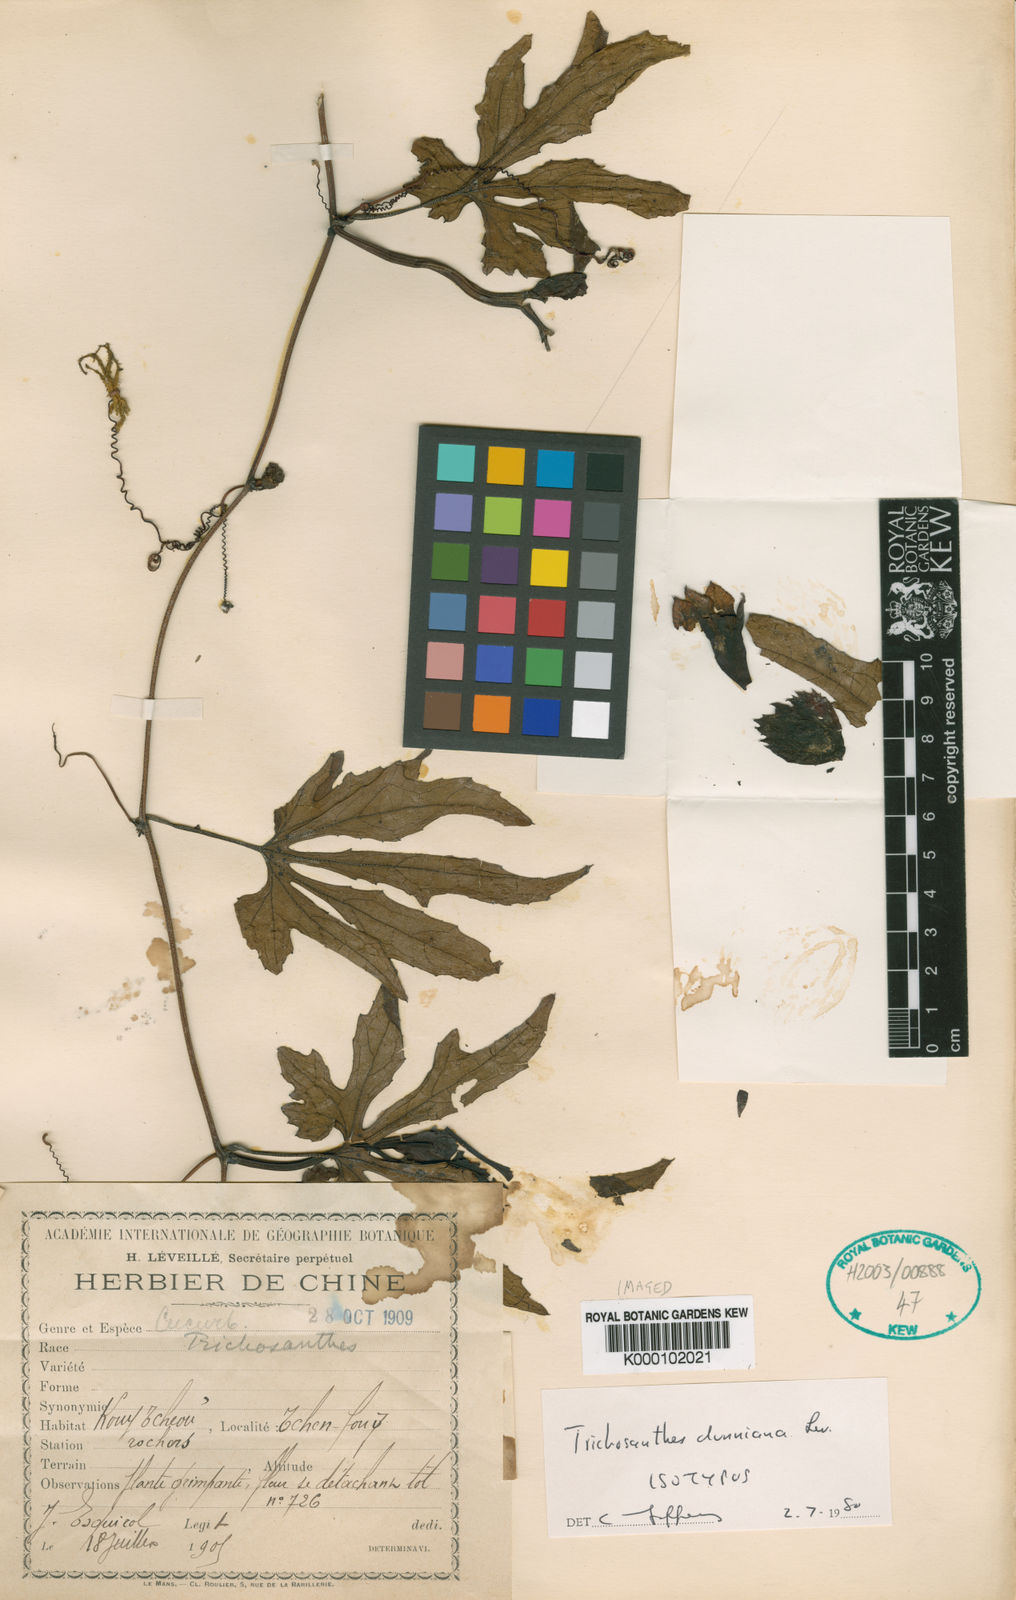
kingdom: Plantae
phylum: Tracheophyta
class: Magnoliopsida
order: Cucurbitales
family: Cucurbitaceae
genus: Trichosanthes
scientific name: Trichosanthes dunniana
